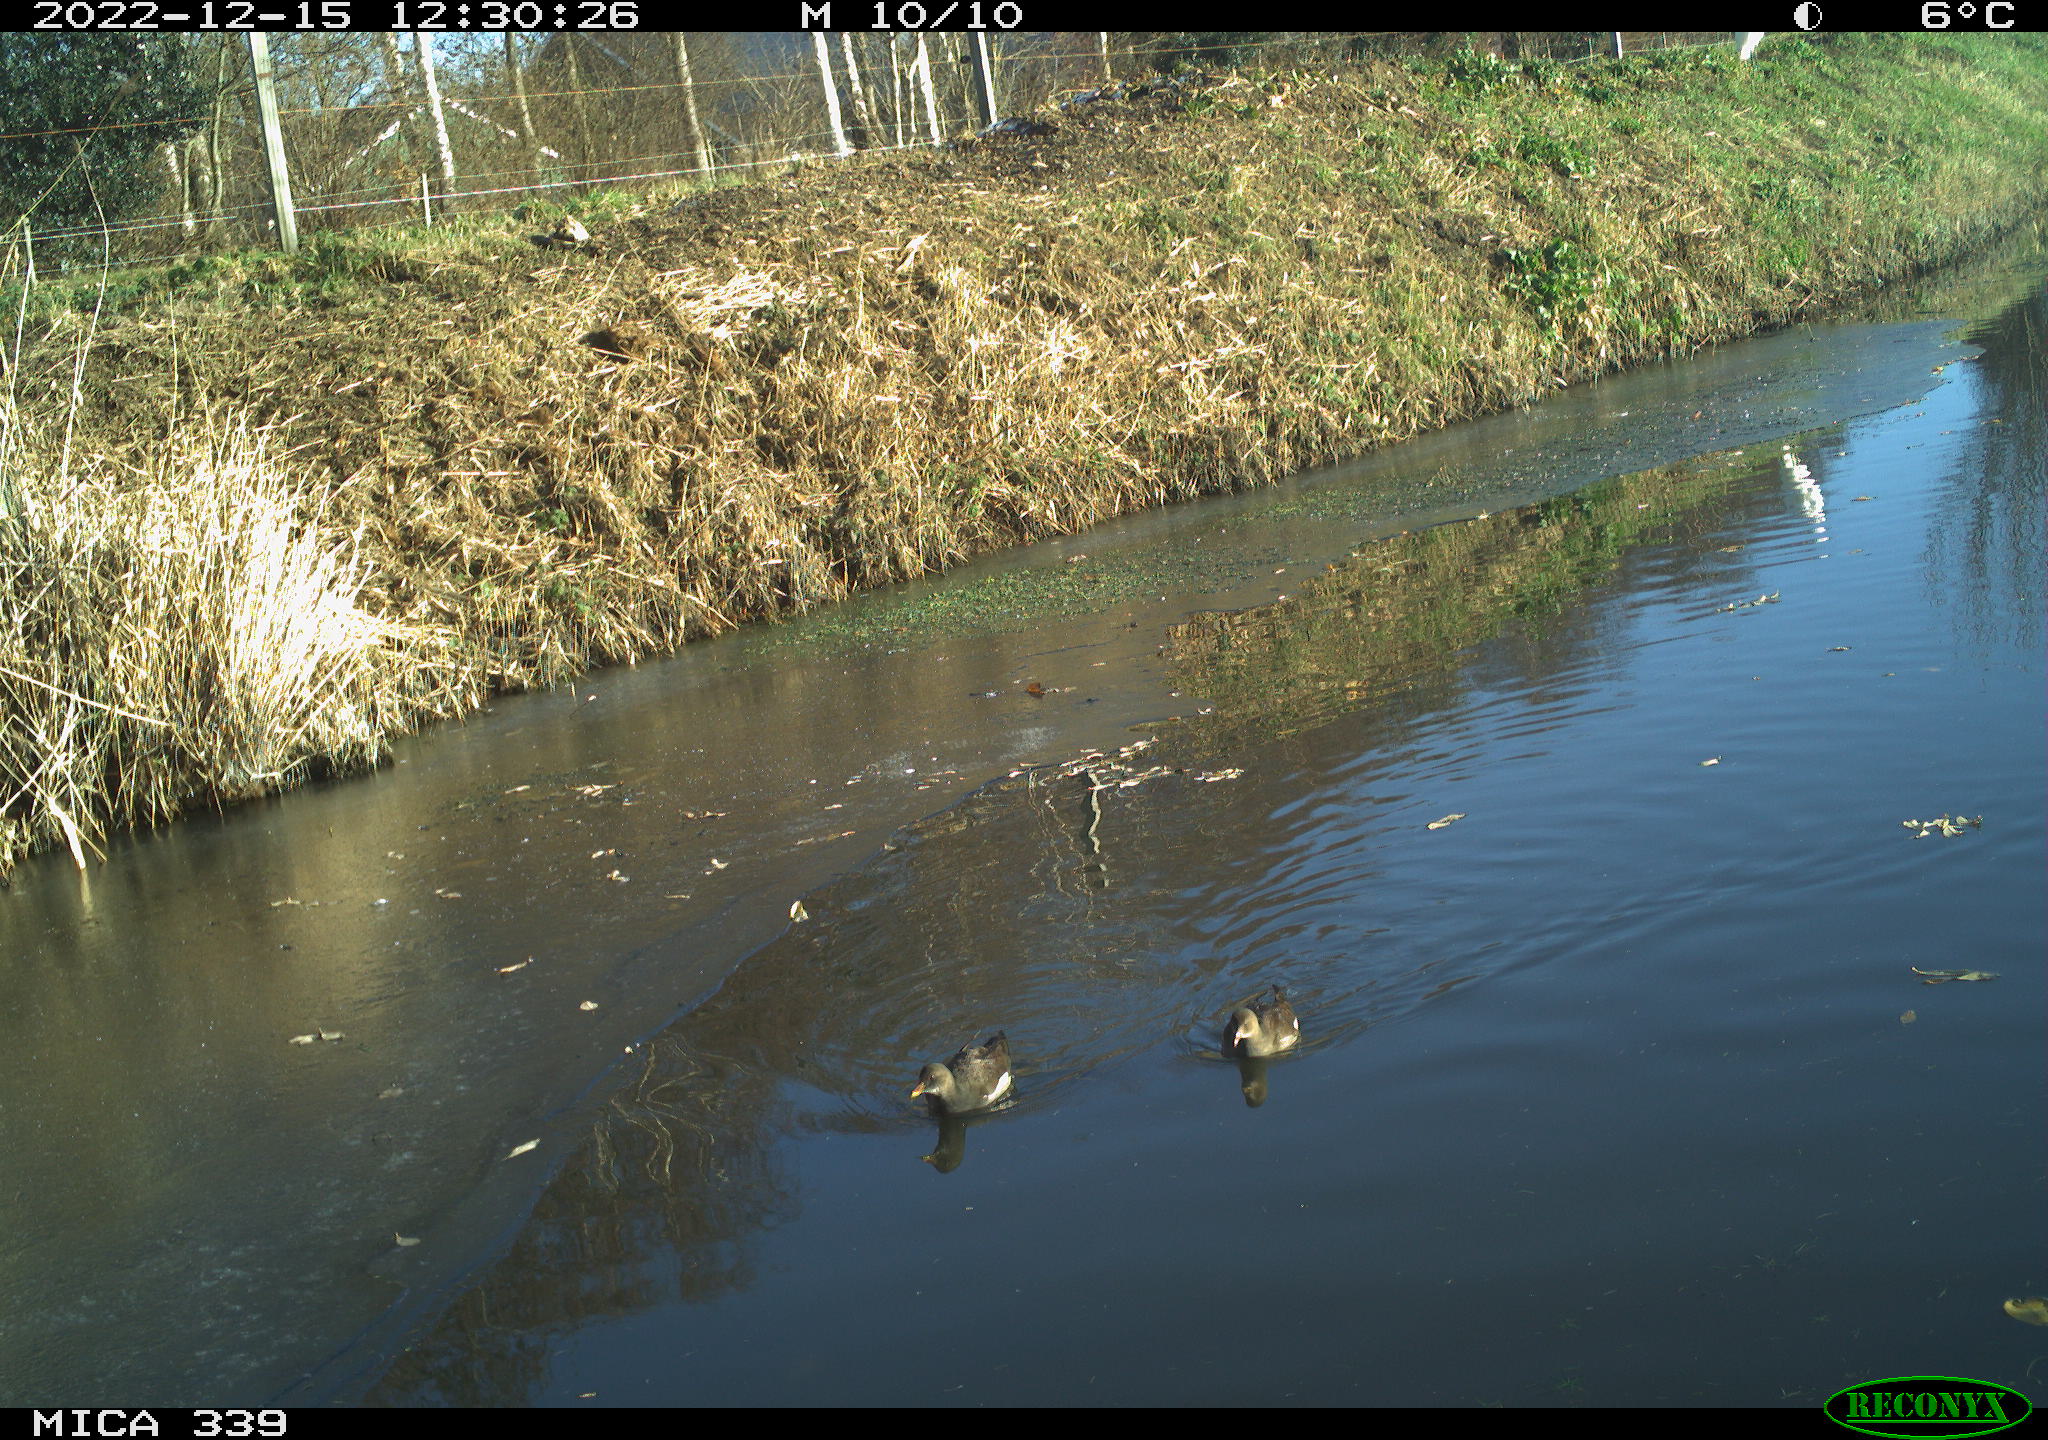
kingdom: Animalia
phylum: Chordata
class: Aves
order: Gruiformes
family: Rallidae
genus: Gallinula
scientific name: Gallinula chloropus
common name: Common moorhen
